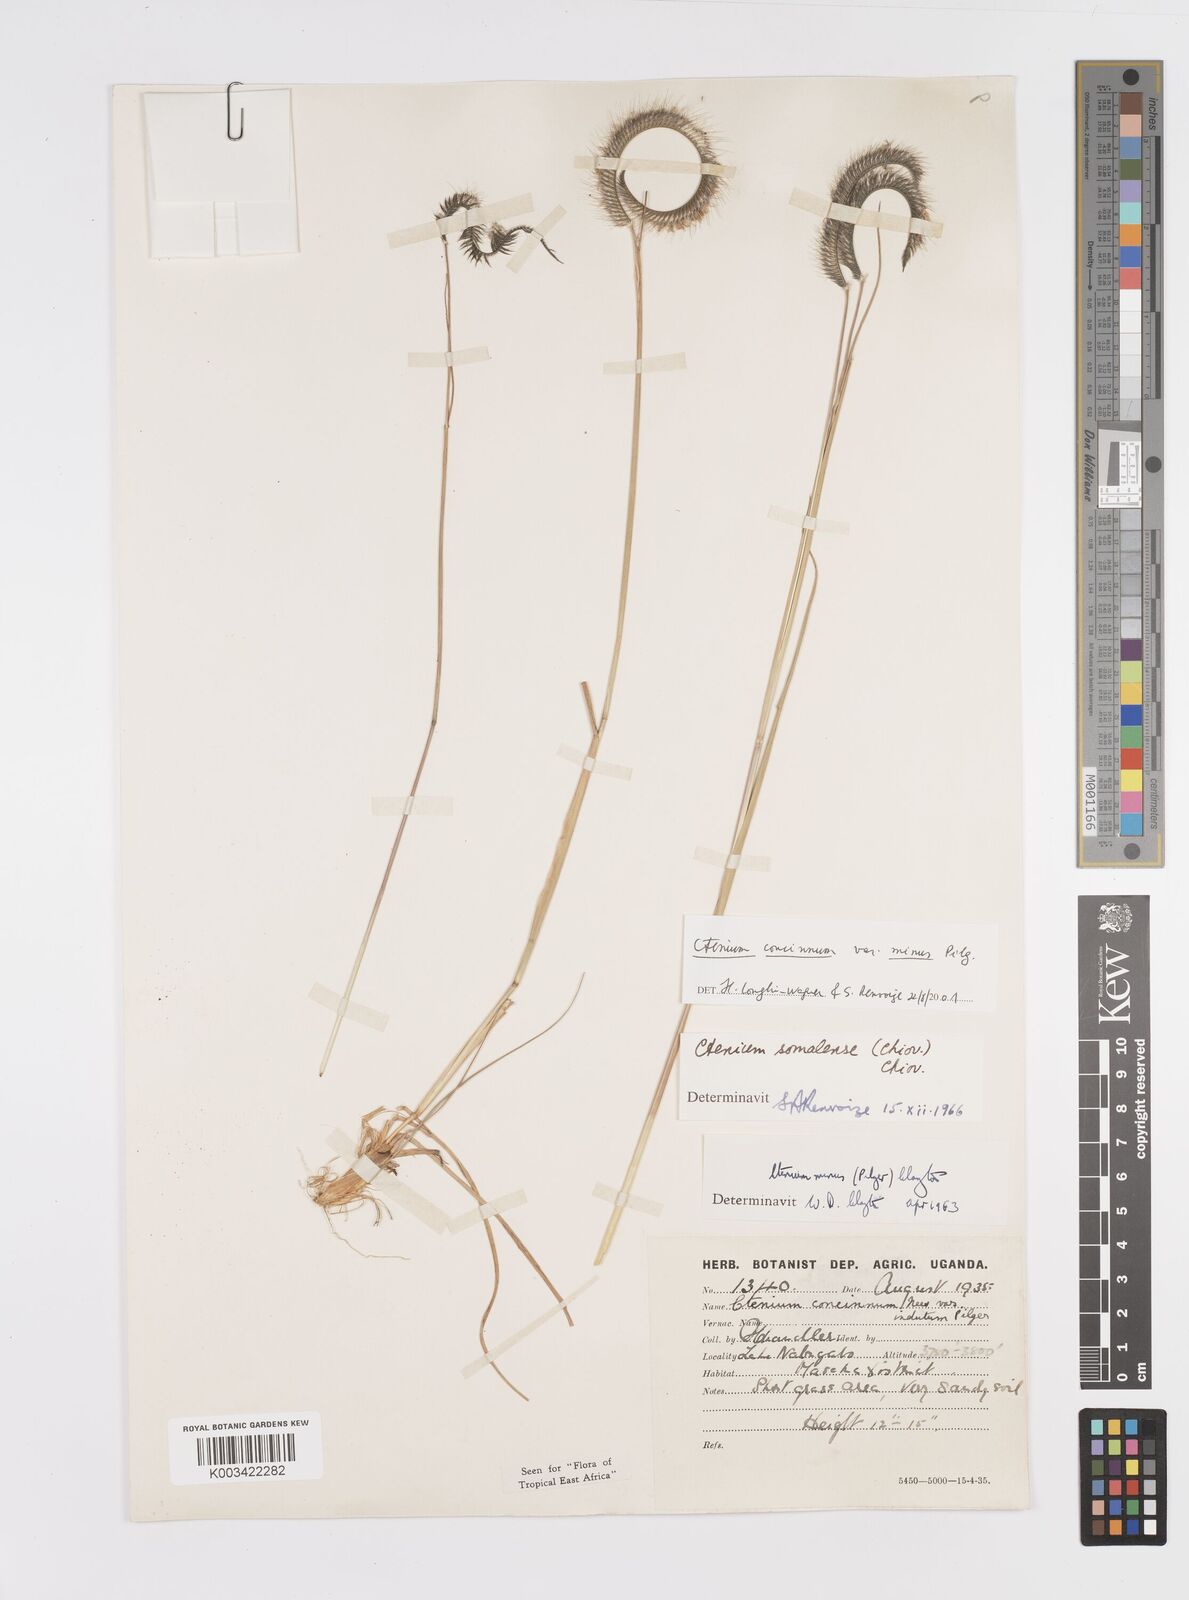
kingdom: Plantae
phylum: Tracheophyta
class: Liliopsida
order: Poales
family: Poaceae
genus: Ctenium
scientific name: Ctenium concinnum
